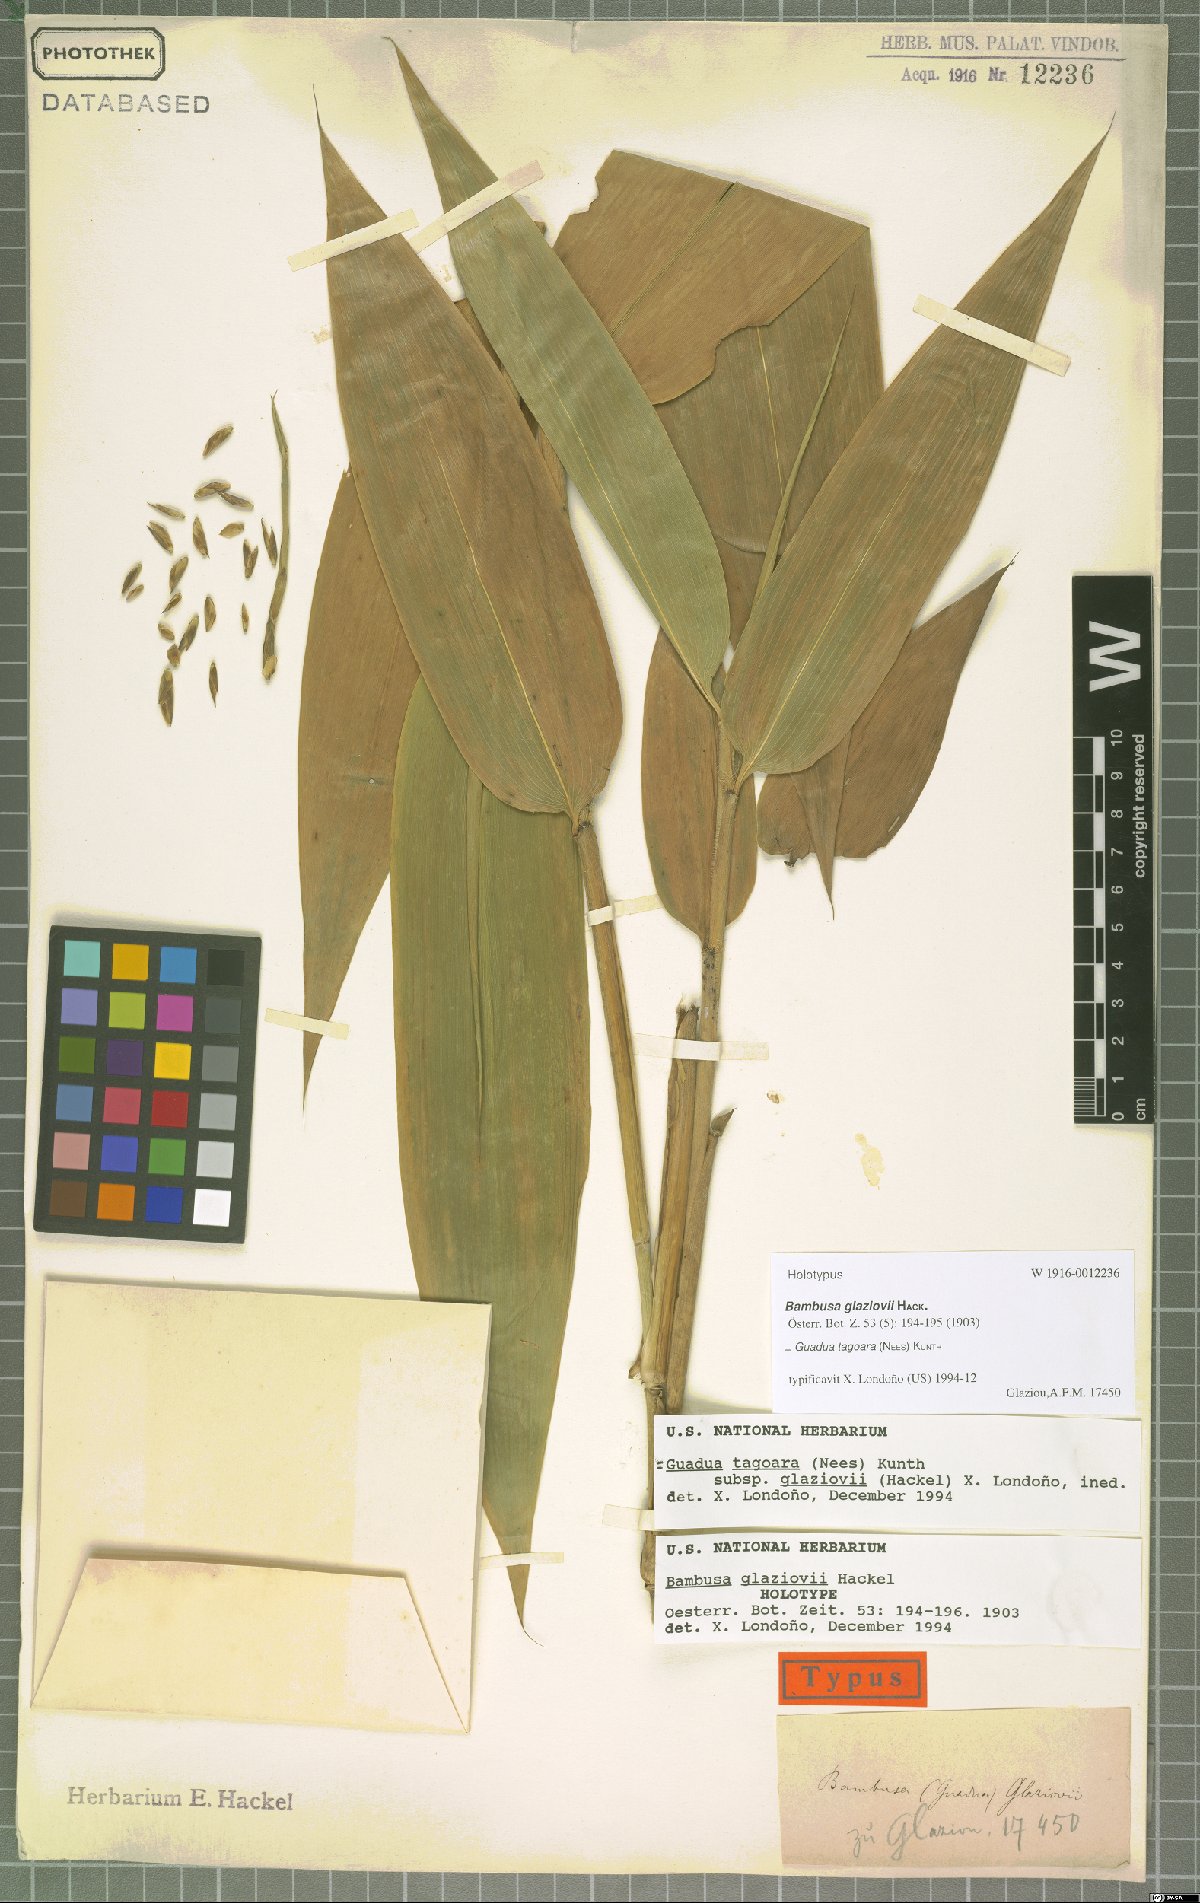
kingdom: Plantae
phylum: Tracheophyta
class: Liliopsida
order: Poales
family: Poaceae
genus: Guadua
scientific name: Guadua tagoara
